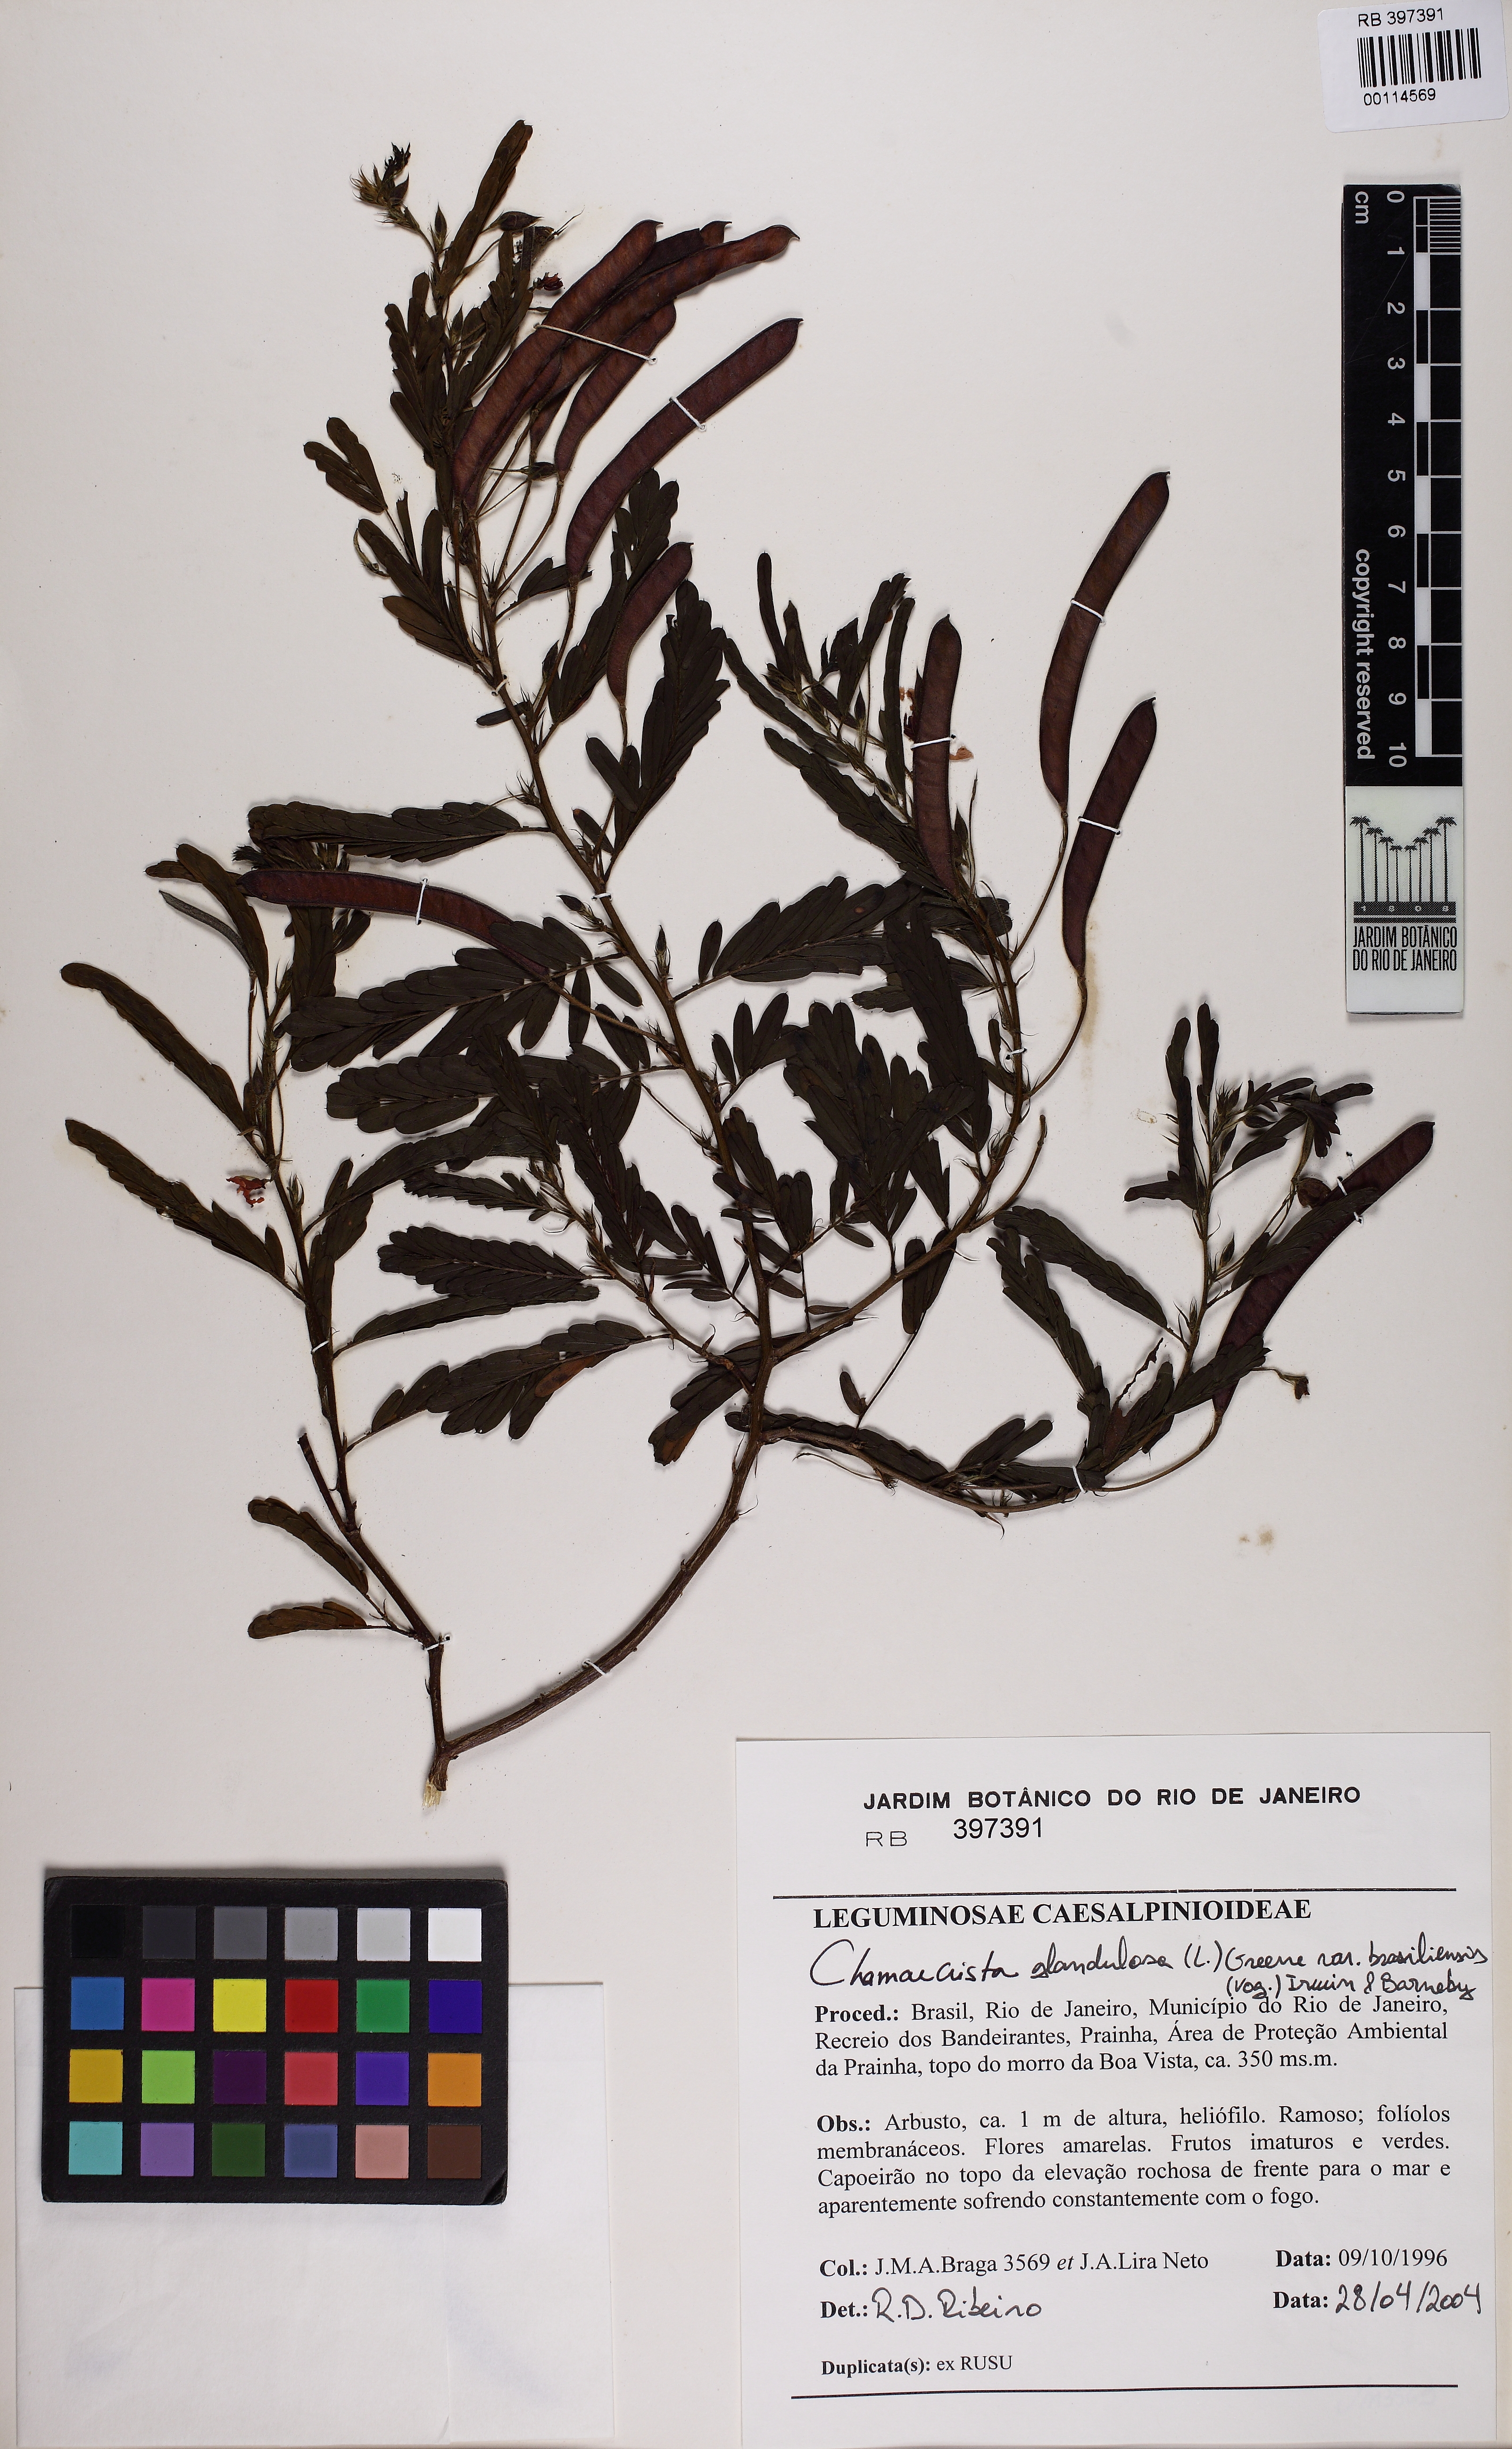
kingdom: Plantae
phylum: Tracheophyta
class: Magnoliopsida
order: Fabales
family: Fabaceae
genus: Chamaecrista
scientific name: Chamaecrista glandulosa
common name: Wild peas
